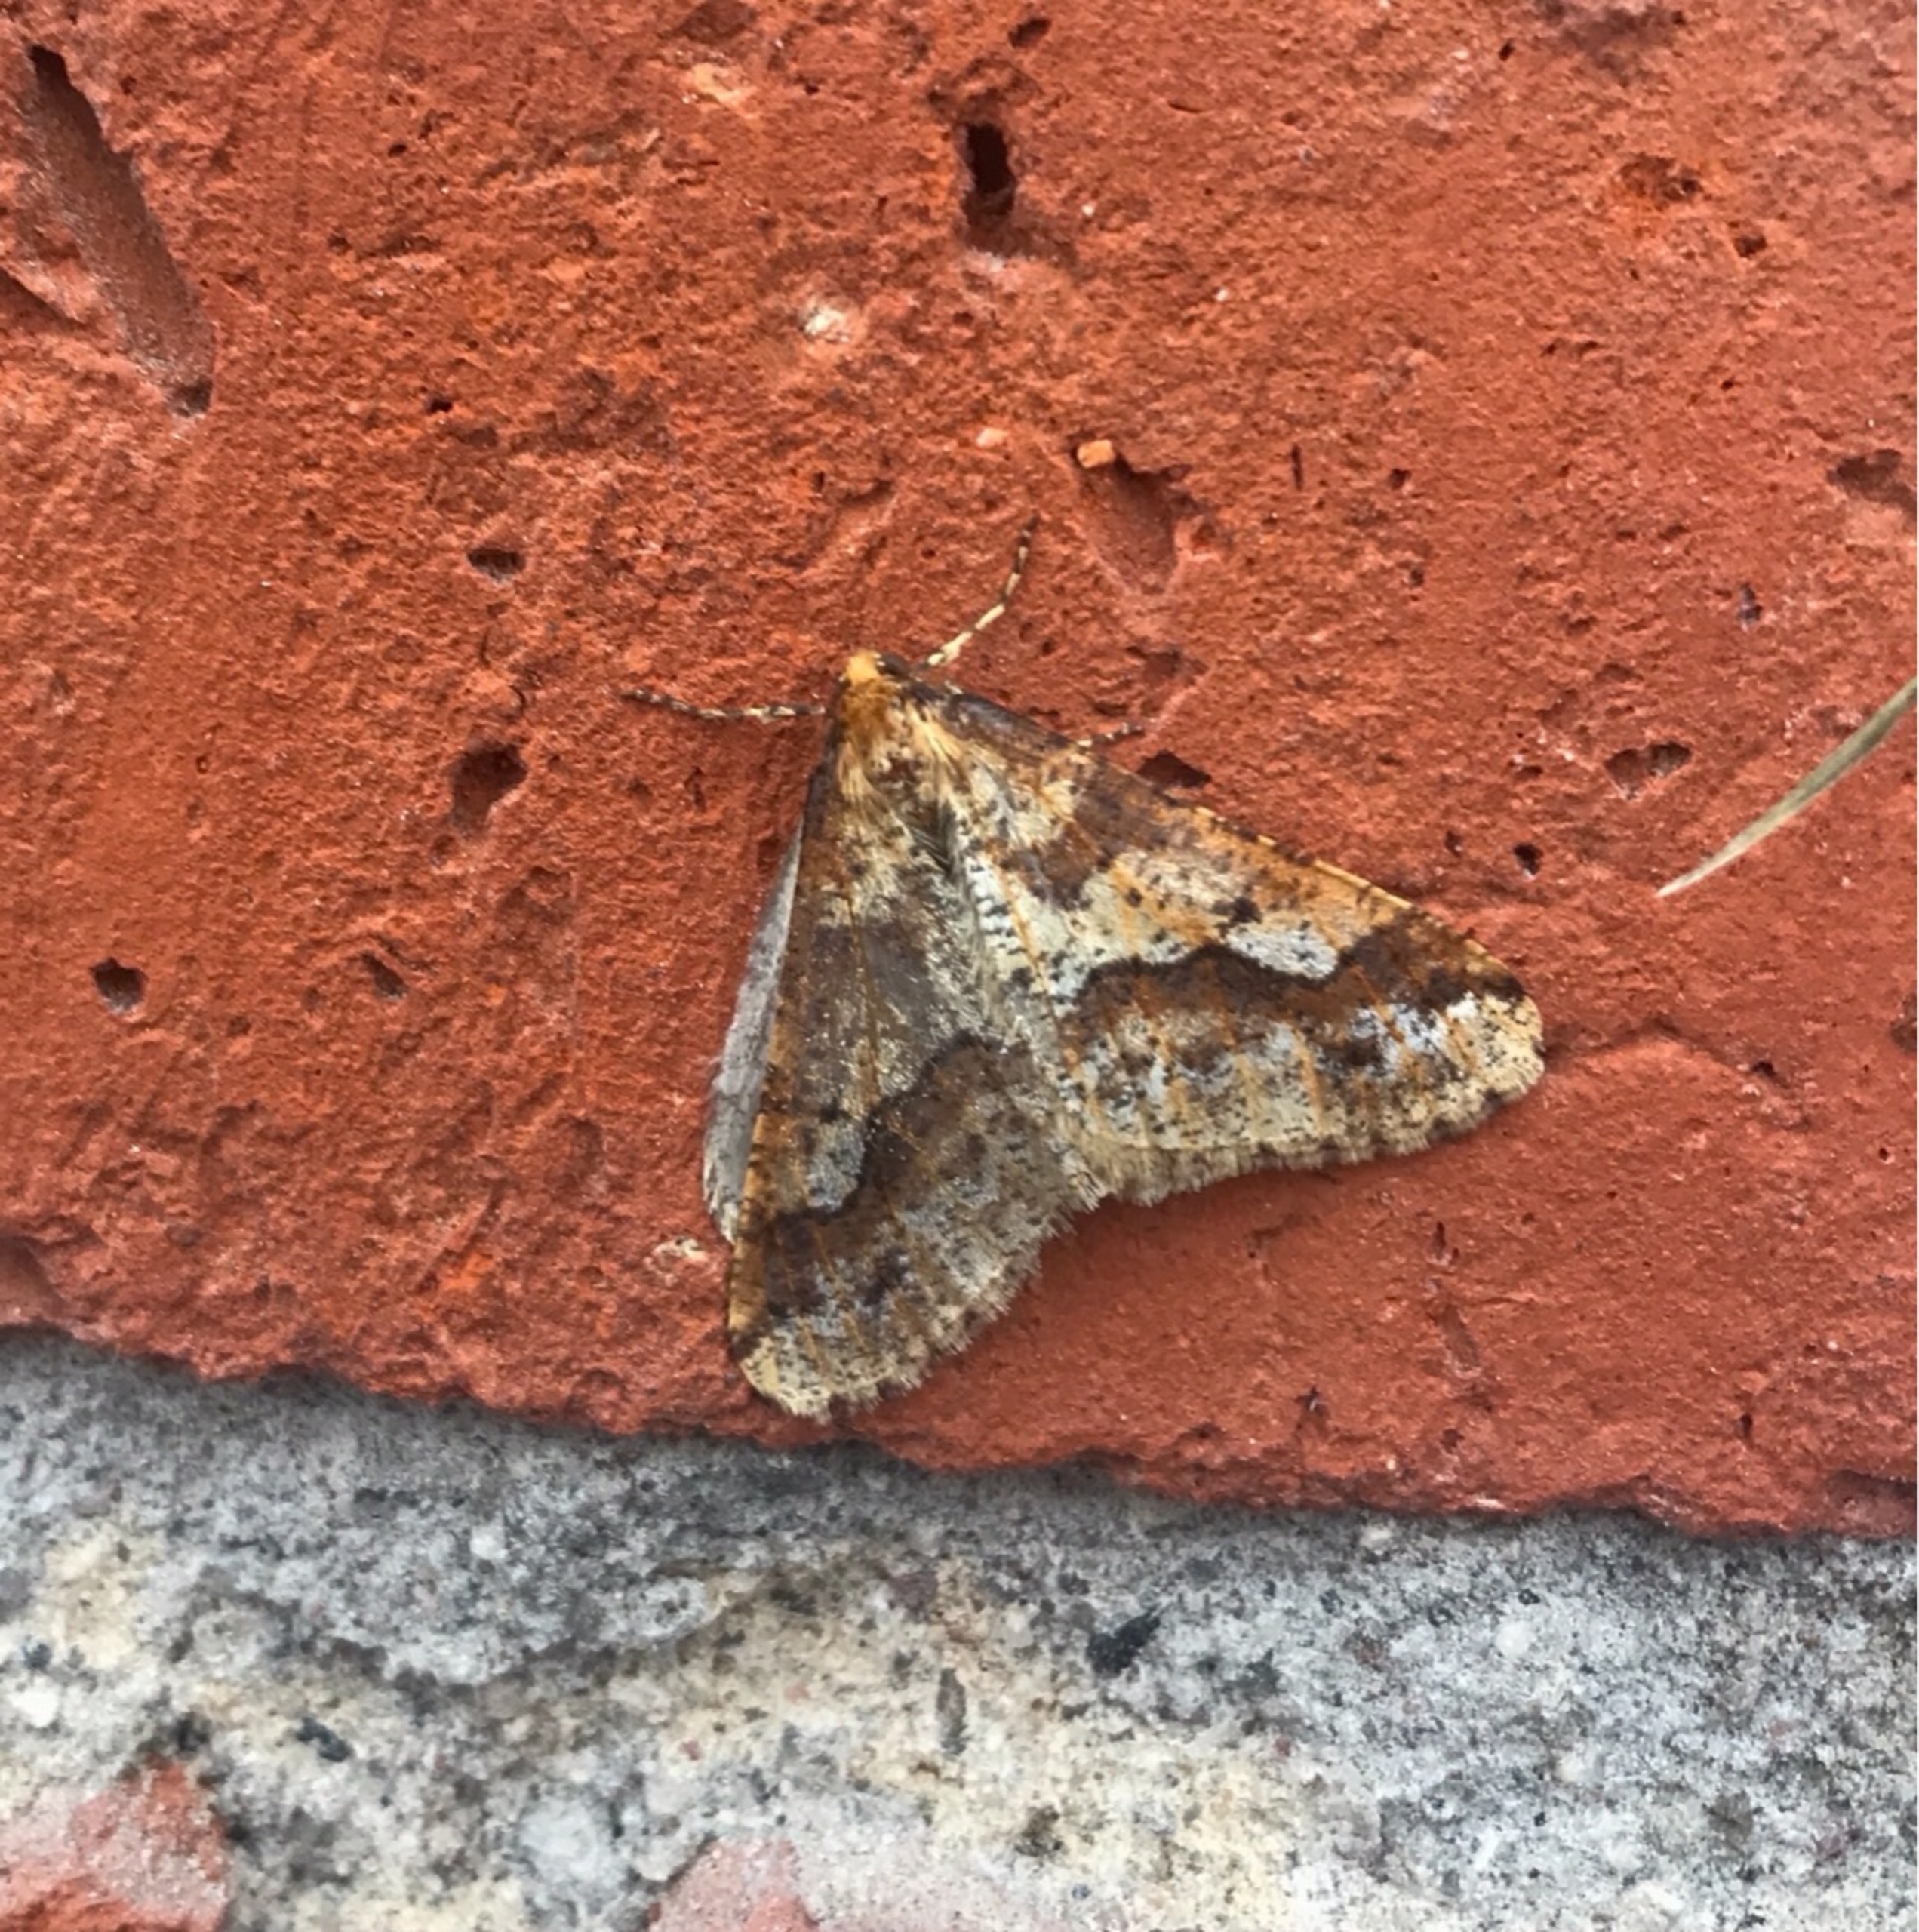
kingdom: Animalia
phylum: Arthropoda
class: Insecta
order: Lepidoptera
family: Geometridae
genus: Erannis
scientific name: Erannis defoliaria
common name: Stor frostmåler
